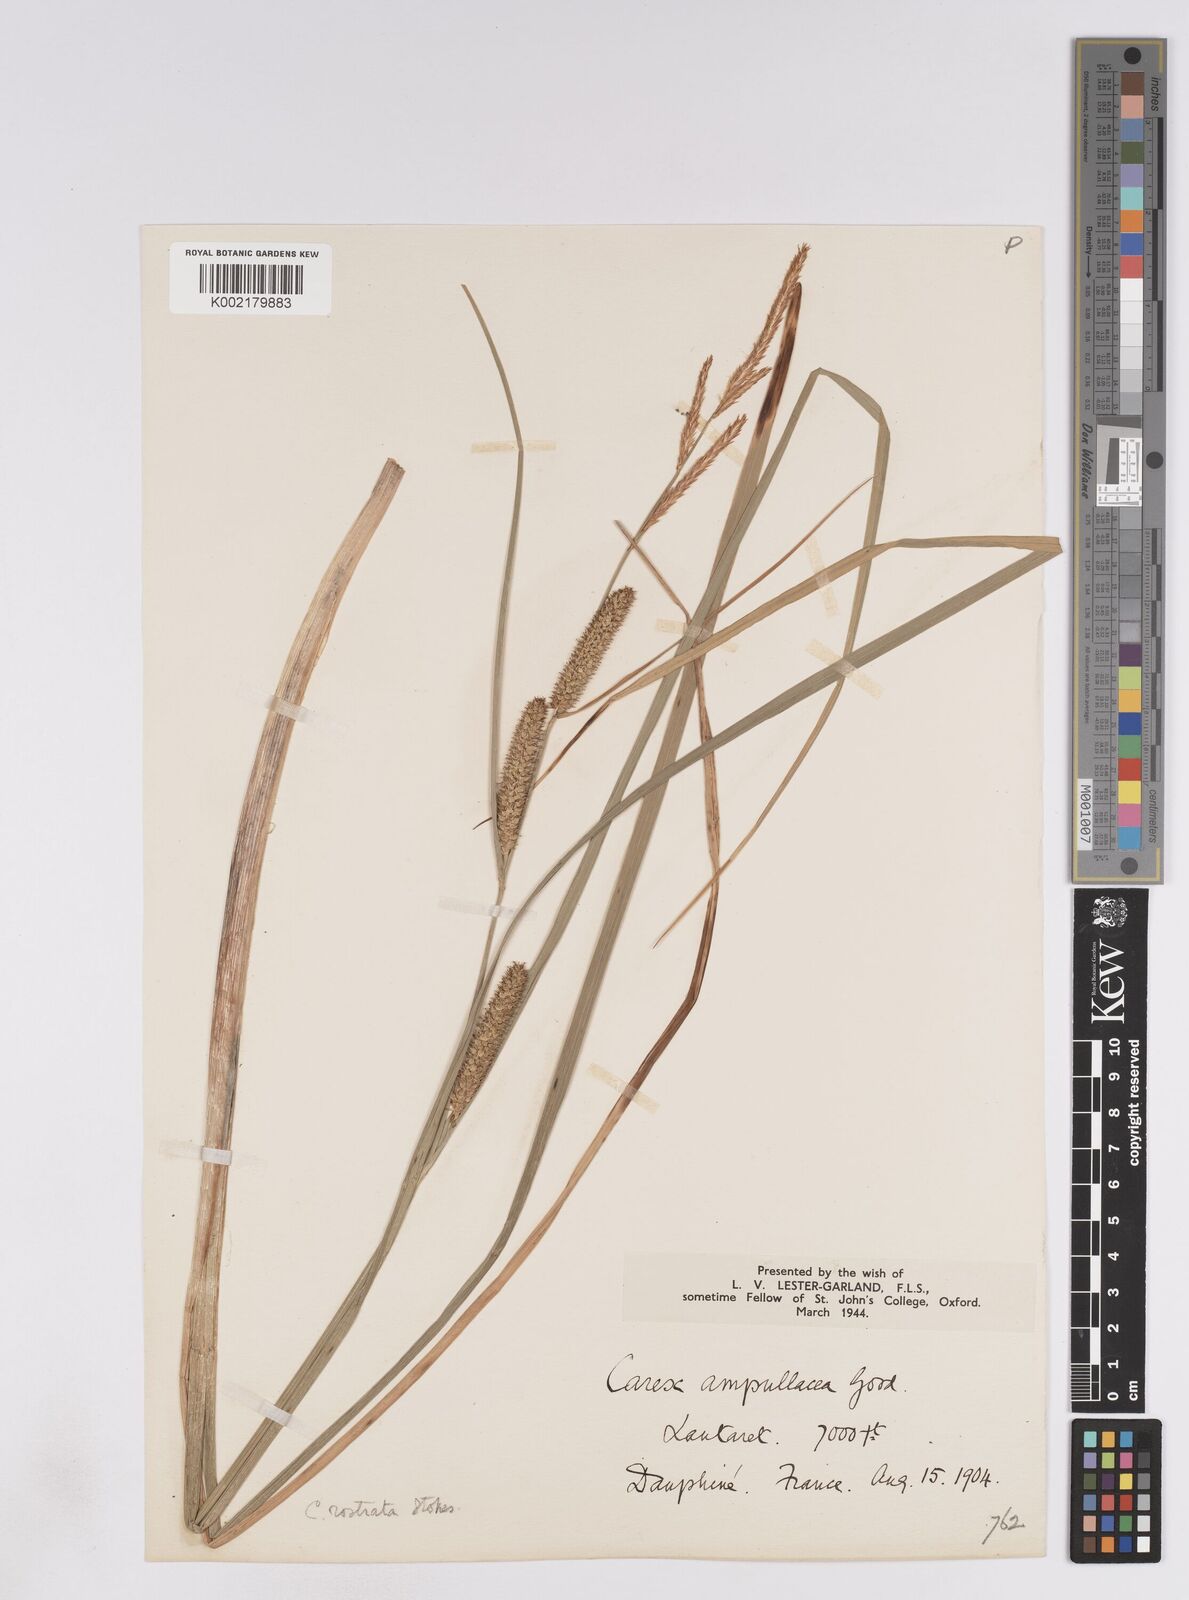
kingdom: Plantae
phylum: Tracheophyta
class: Liliopsida
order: Poales
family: Cyperaceae
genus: Carex
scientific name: Carex rostrata
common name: Bottle sedge
